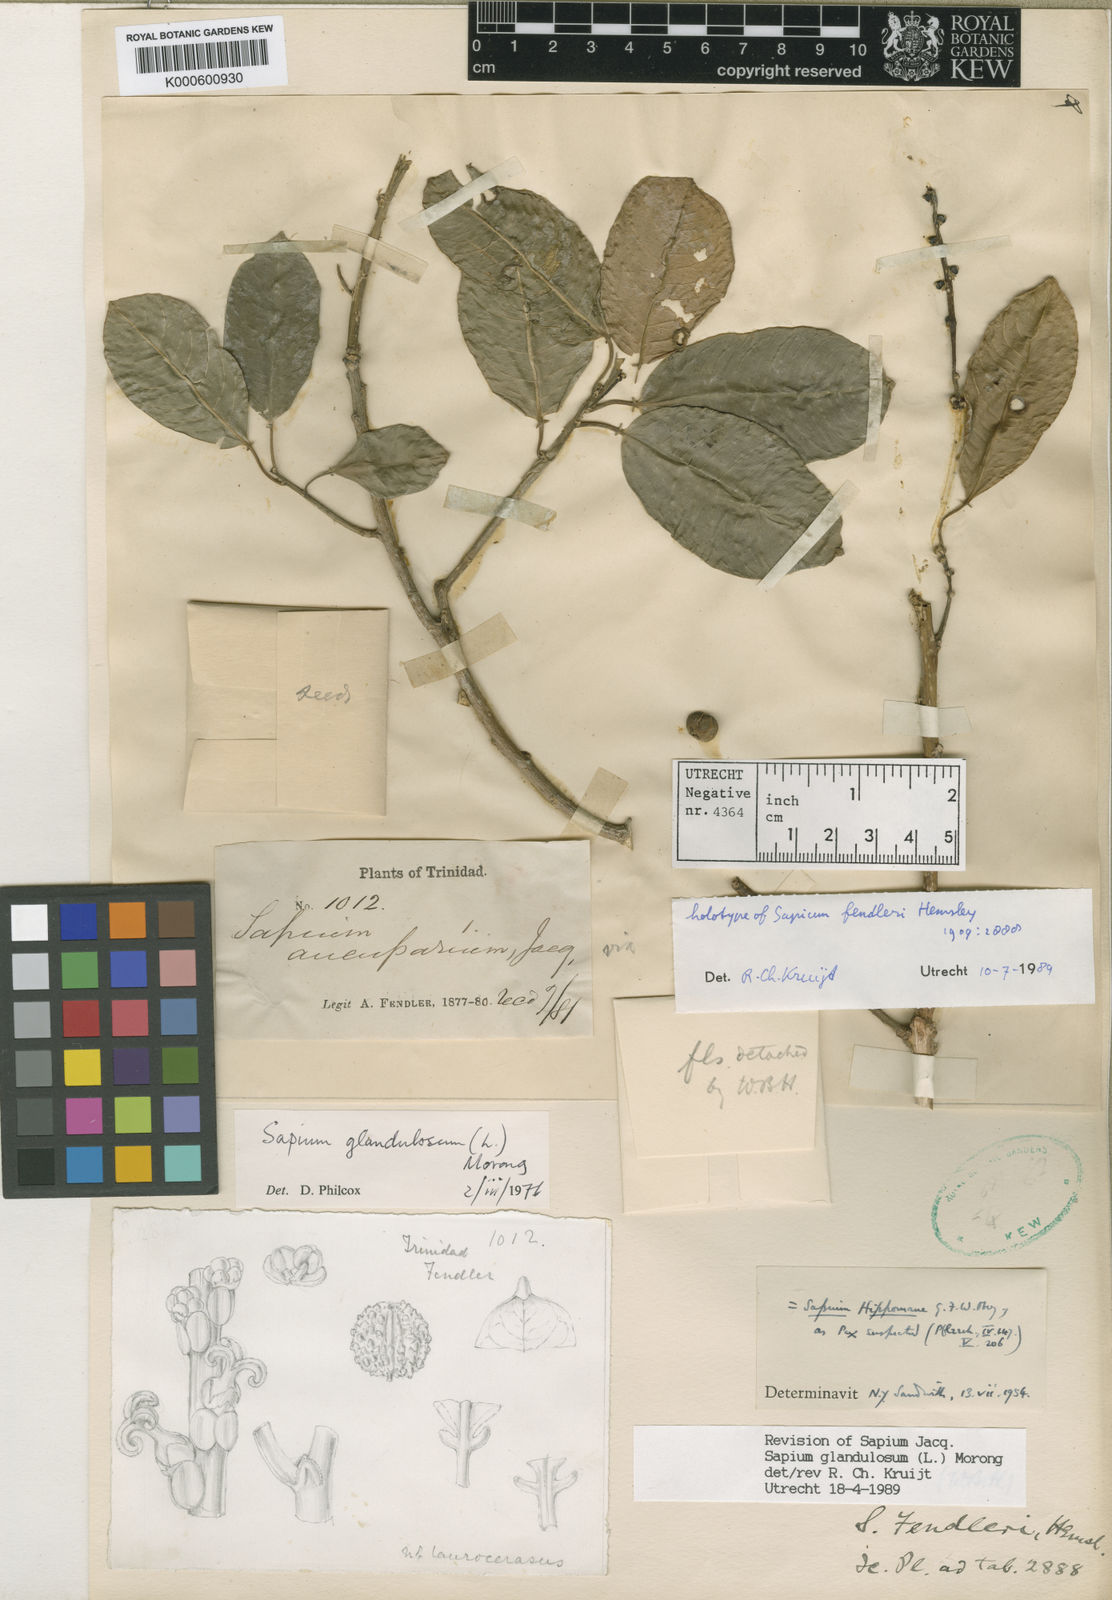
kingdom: Plantae
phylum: Tracheophyta
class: Magnoliopsida
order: Malpighiales
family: Euphorbiaceae
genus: Sapium
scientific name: Sapium glandulosum
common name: Milktree
